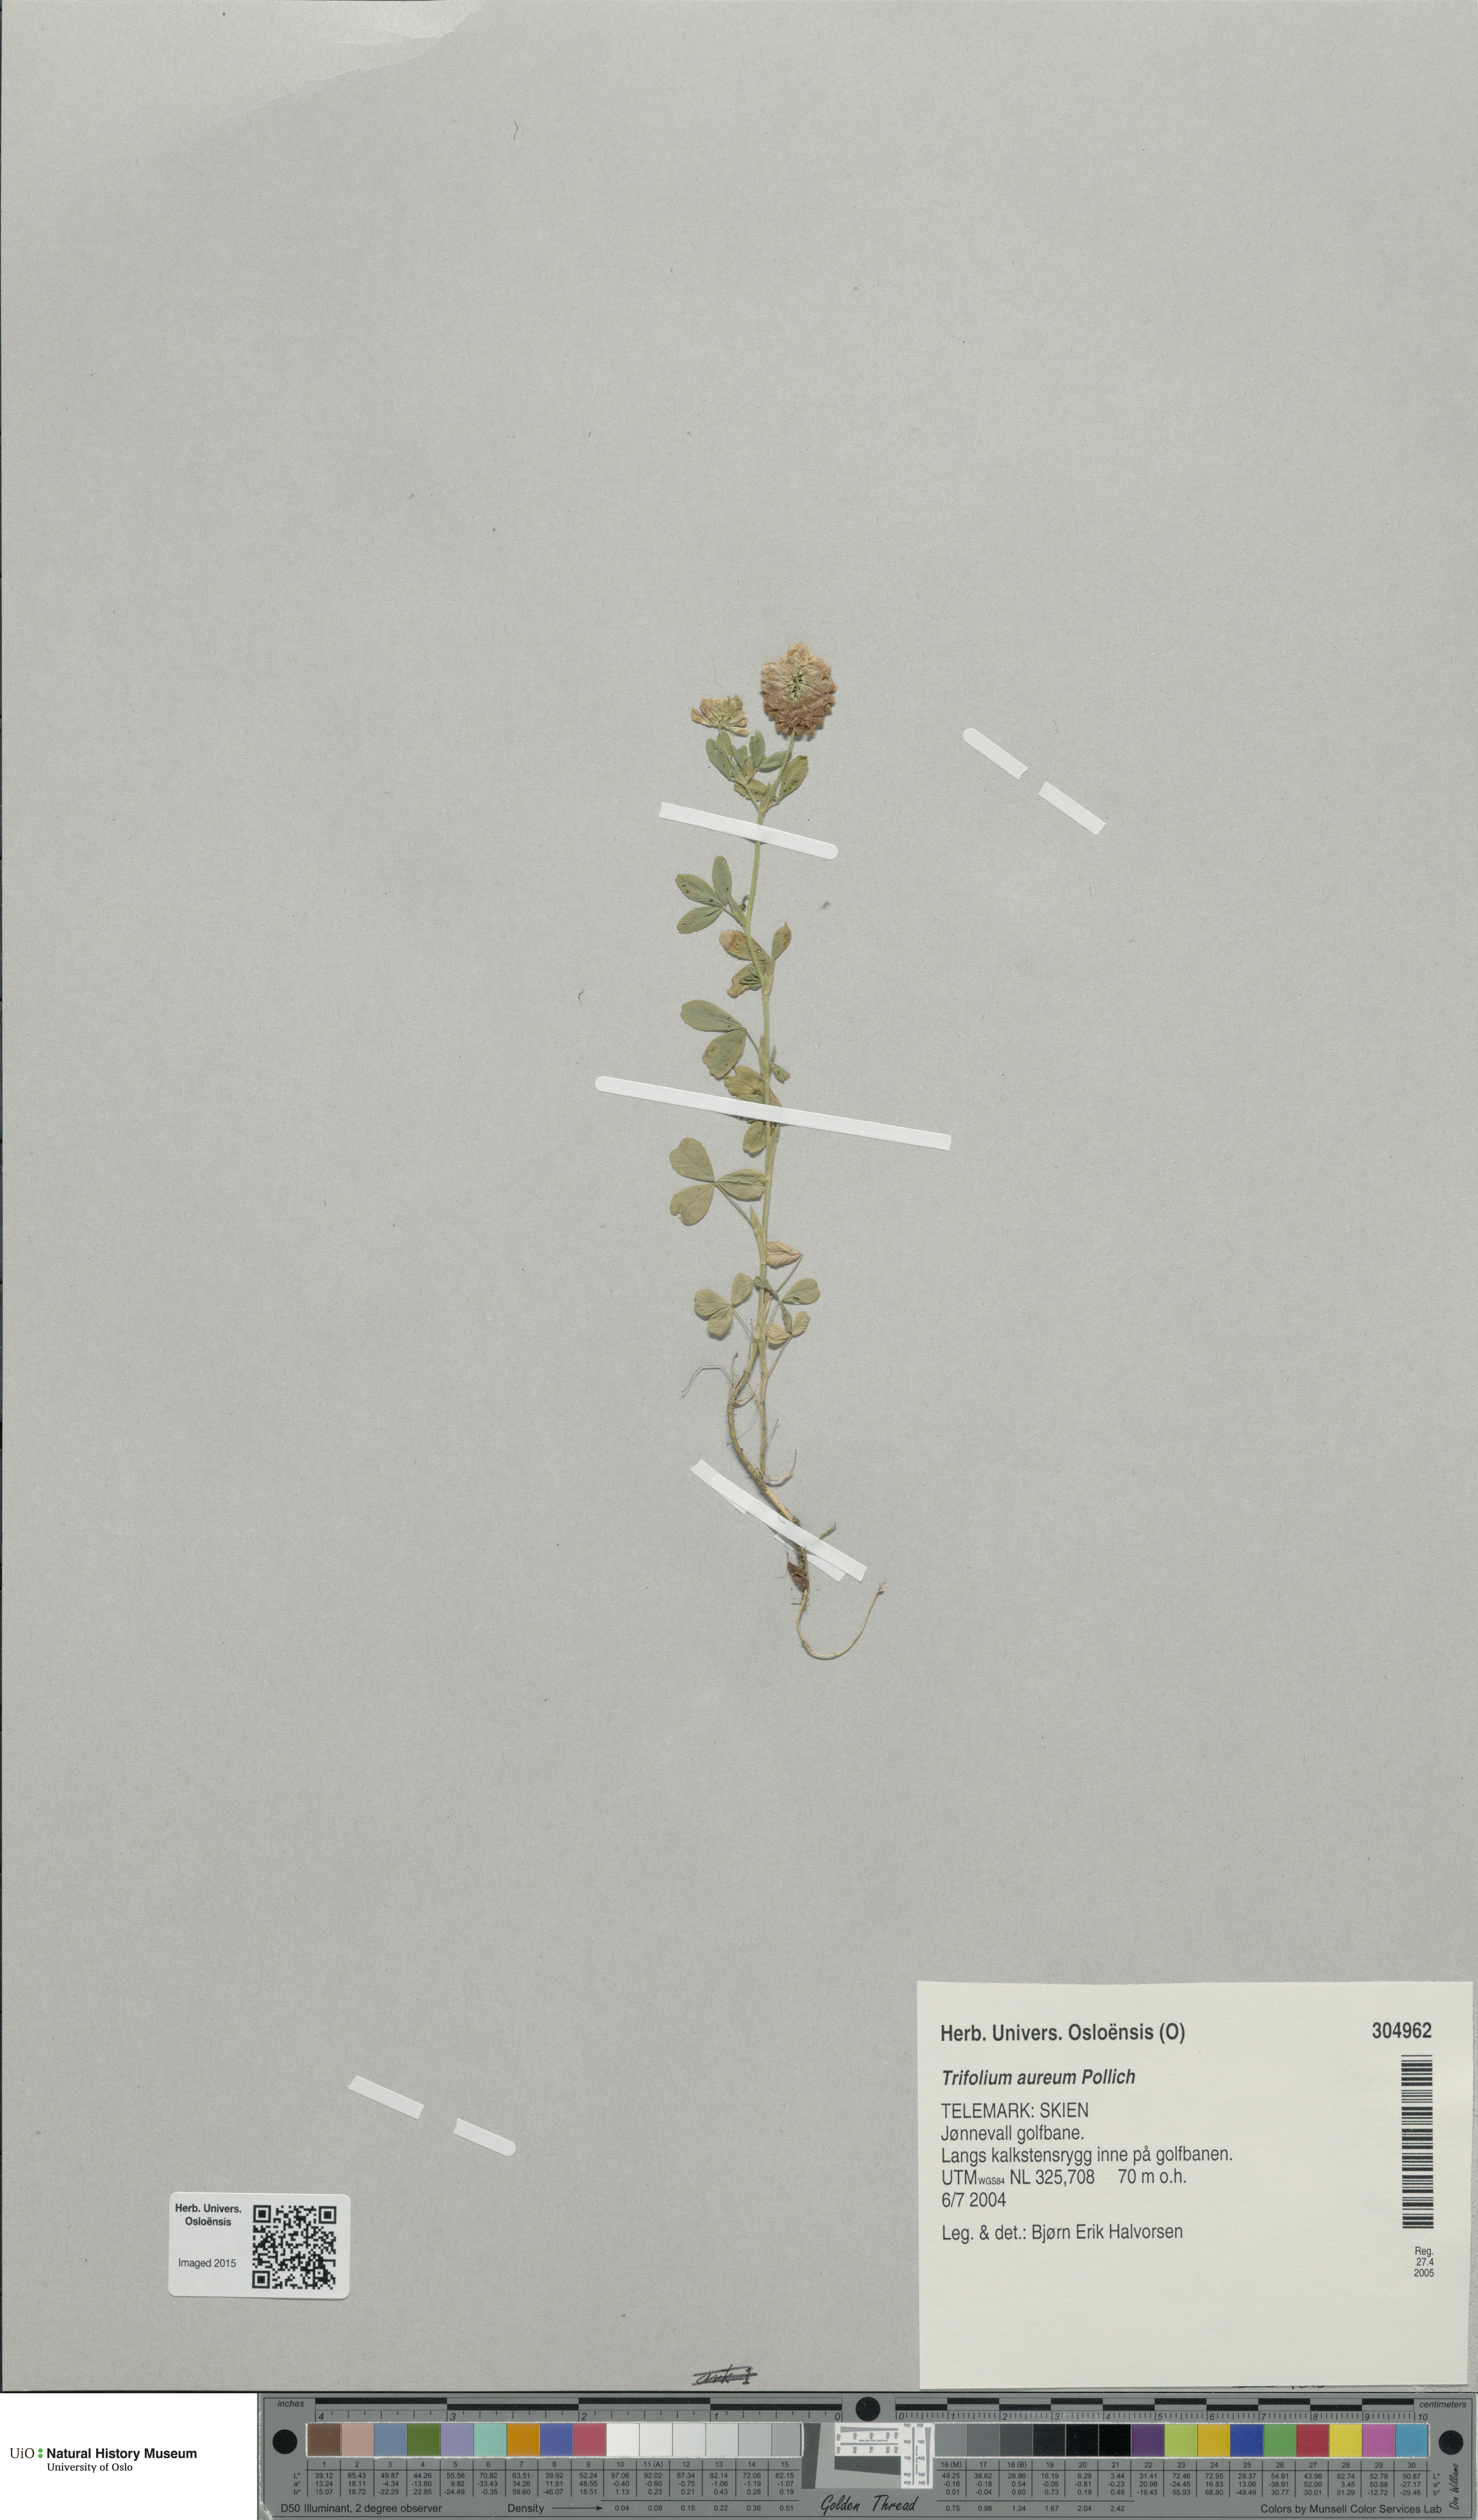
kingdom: Plantae
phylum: Tracheophyta
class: Magnoliopsida
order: Fabales
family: Fabaceae
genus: Trifolium
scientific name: Trifolium aureum
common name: Golden clover
